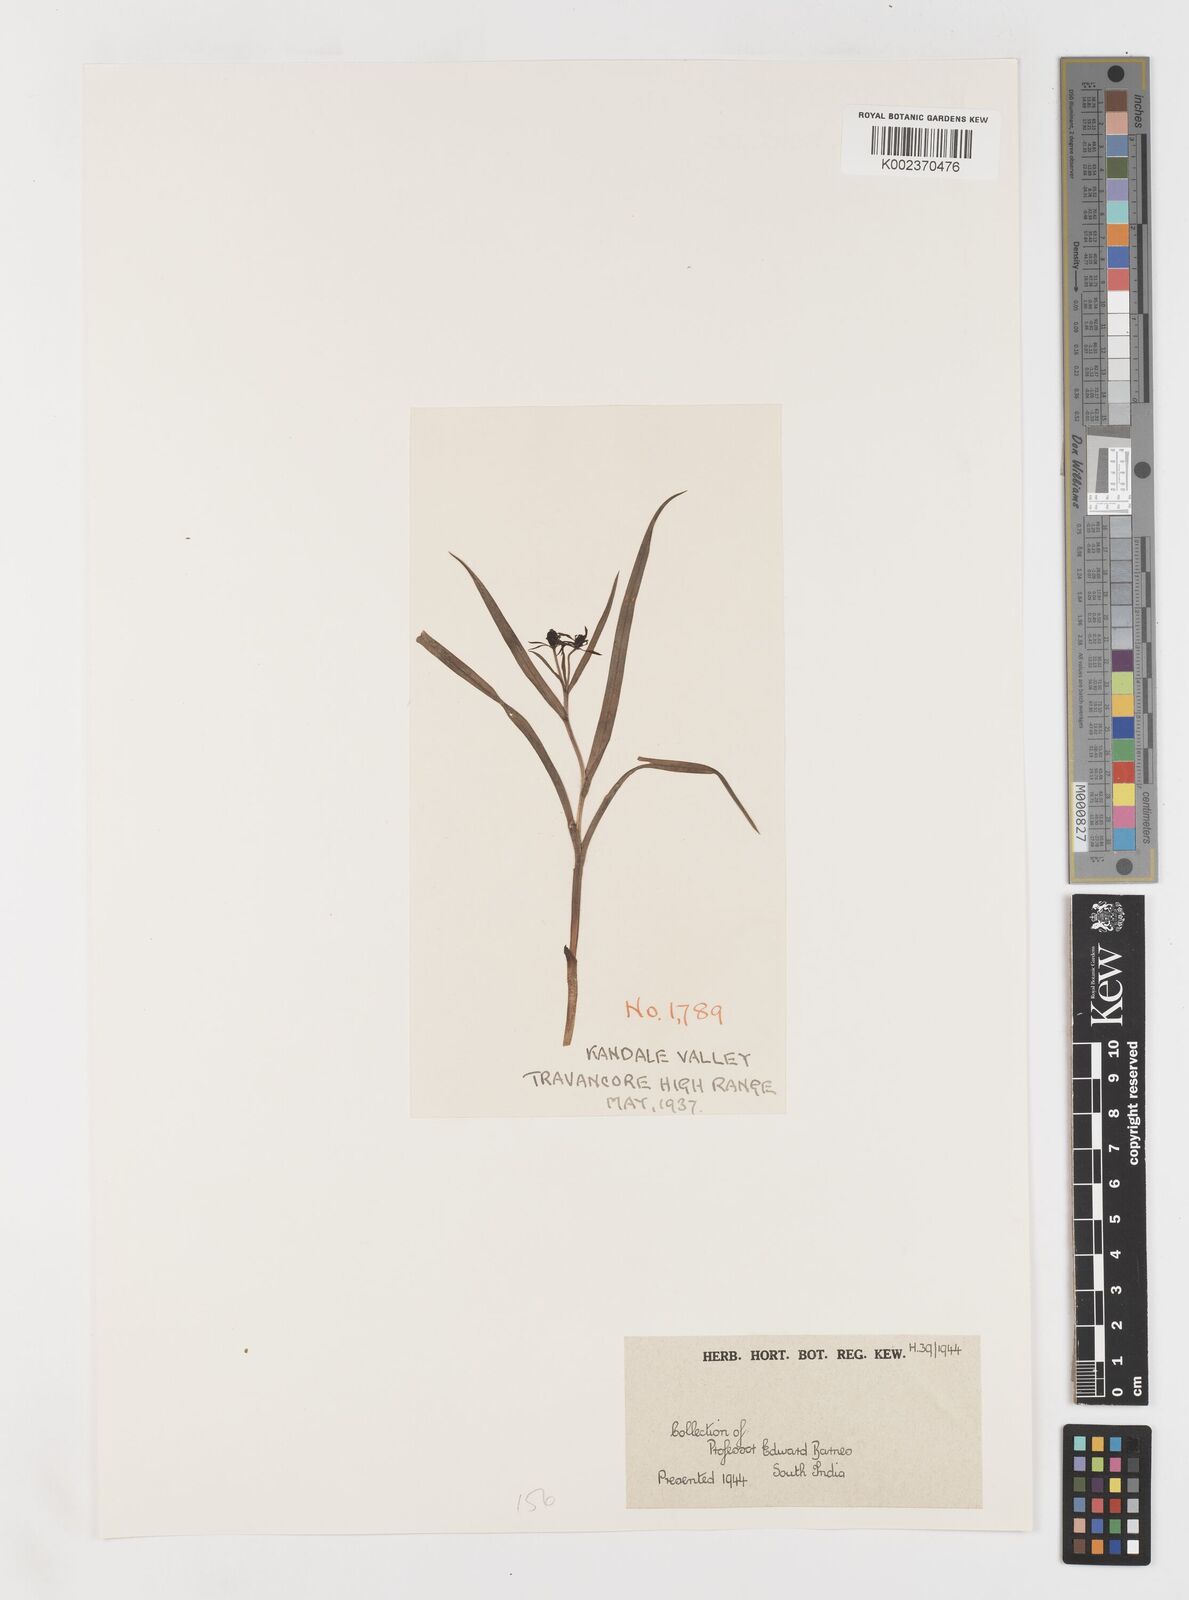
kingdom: Plantae
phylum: Tracheophyta
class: Liliopsida
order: Liliales
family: Colchicaceae
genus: Iphigenia
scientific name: Iphigenia indica
